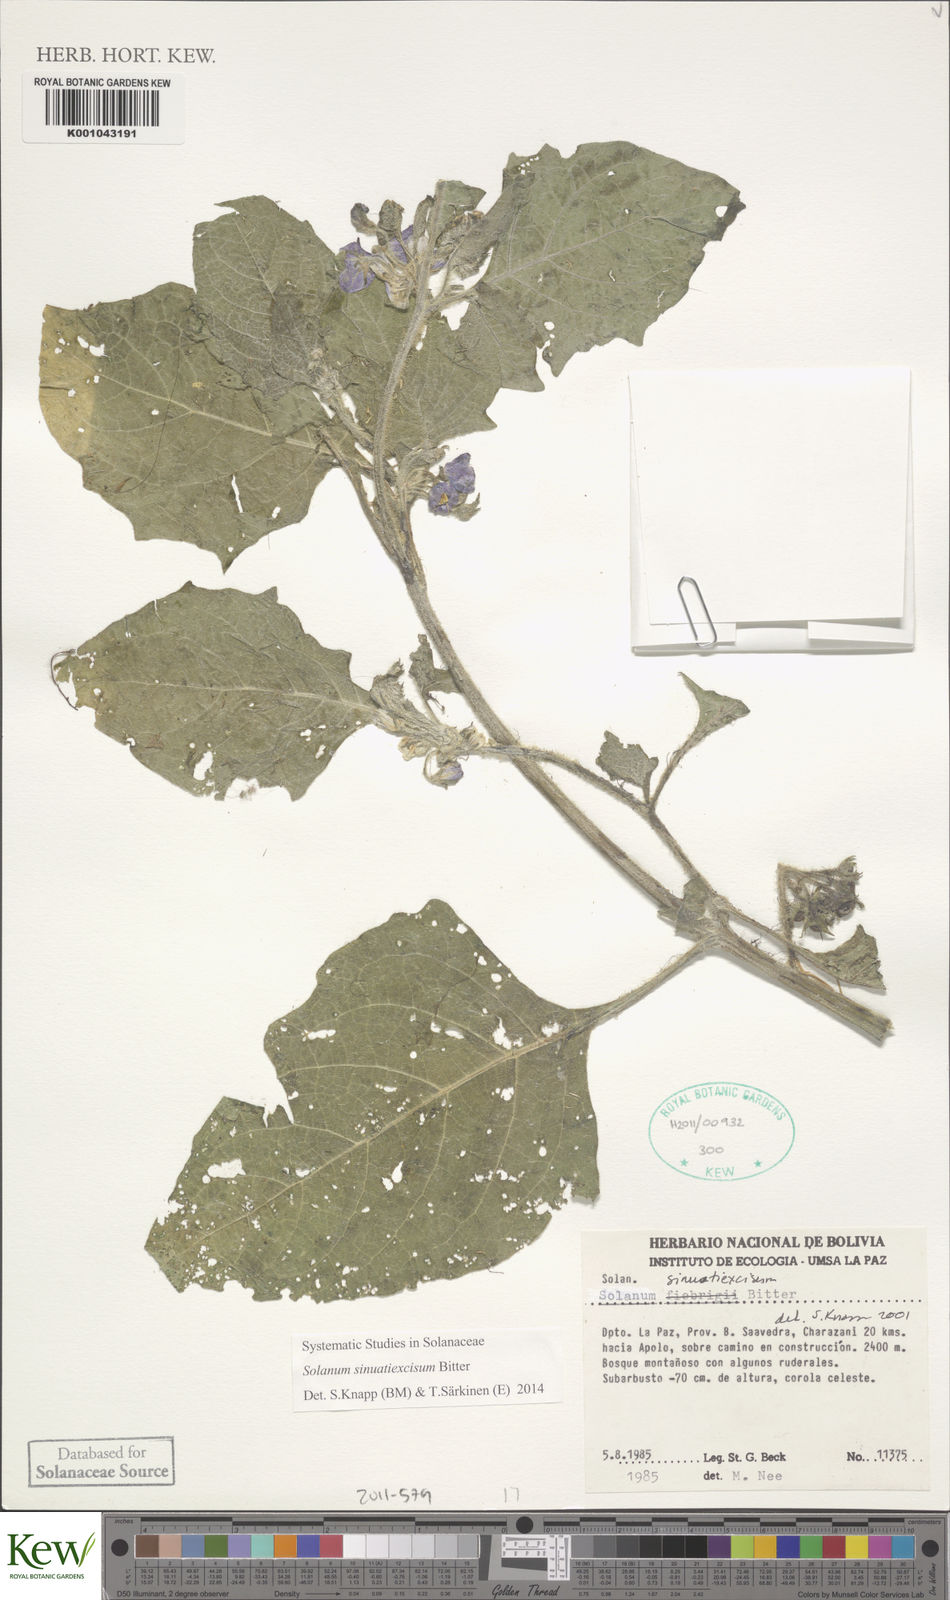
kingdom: Plantae
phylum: Tracheophyta
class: Magnoliopsida
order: Solanales
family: Solanaceae
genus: Solanum
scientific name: Solanum sinuatiexcisum
